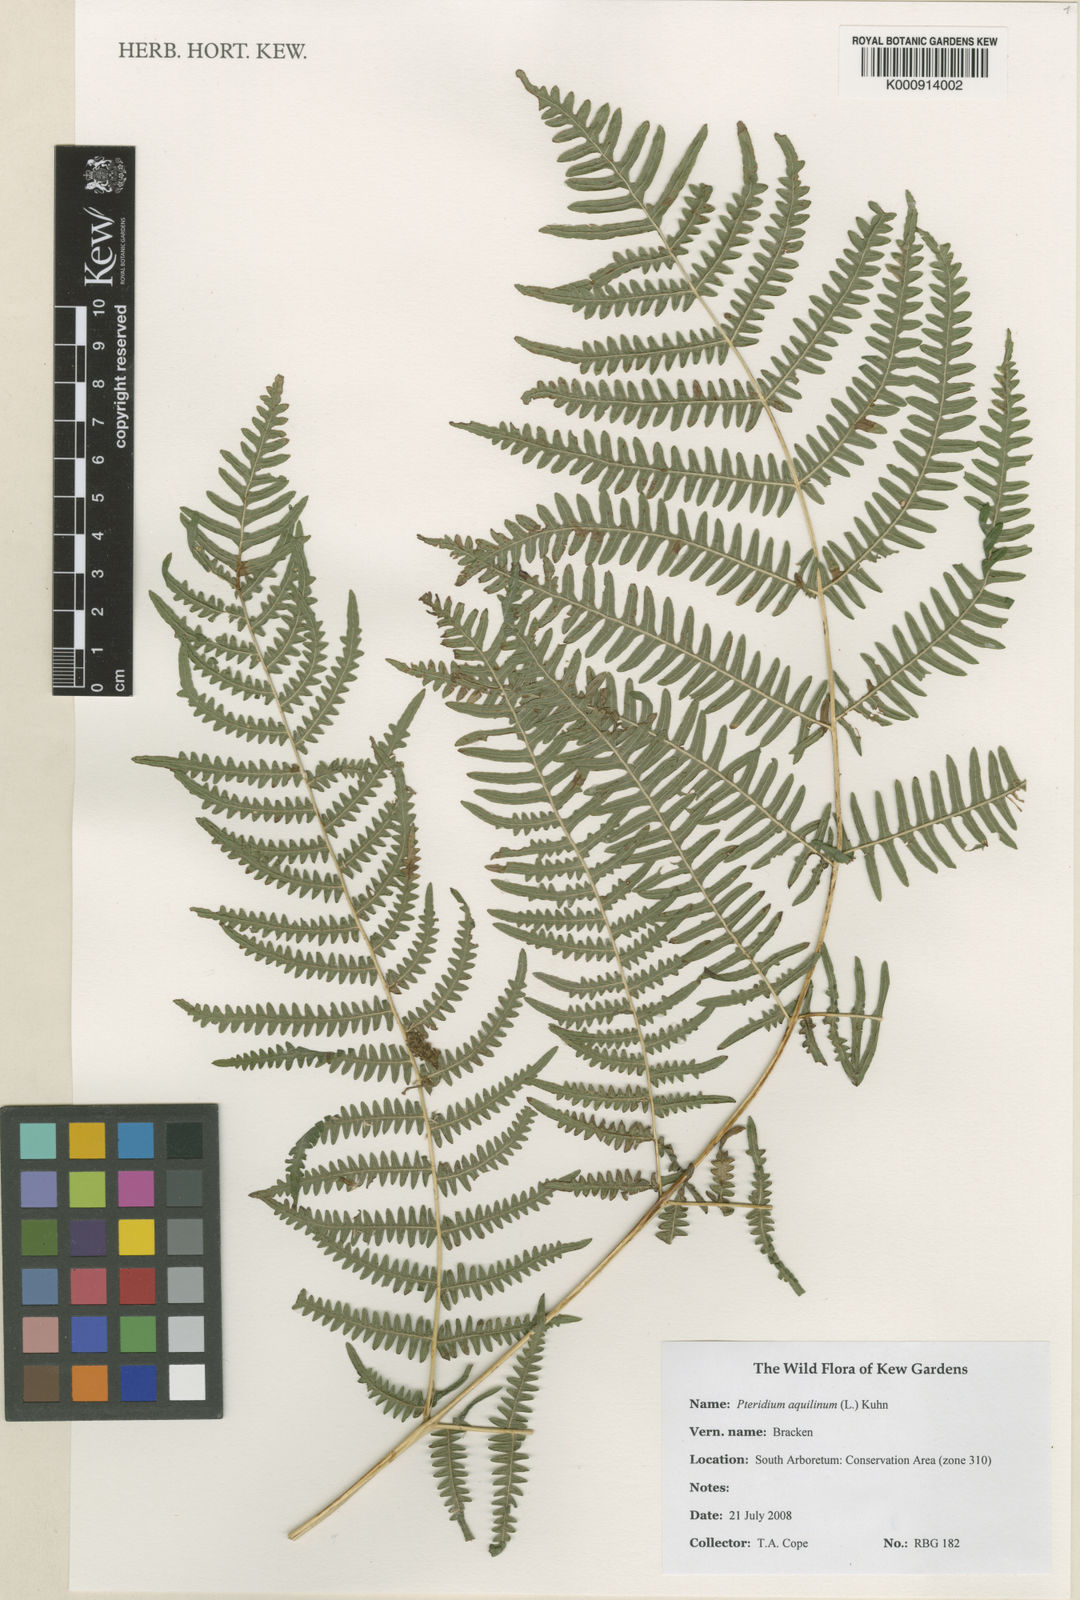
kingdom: Plantae
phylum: Tracheophyta
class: Polypodiopsida
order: Polypodiales
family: Dennstaedtiaceae
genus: Pteridium
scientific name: Pteridium aquilinum
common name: Bracken
